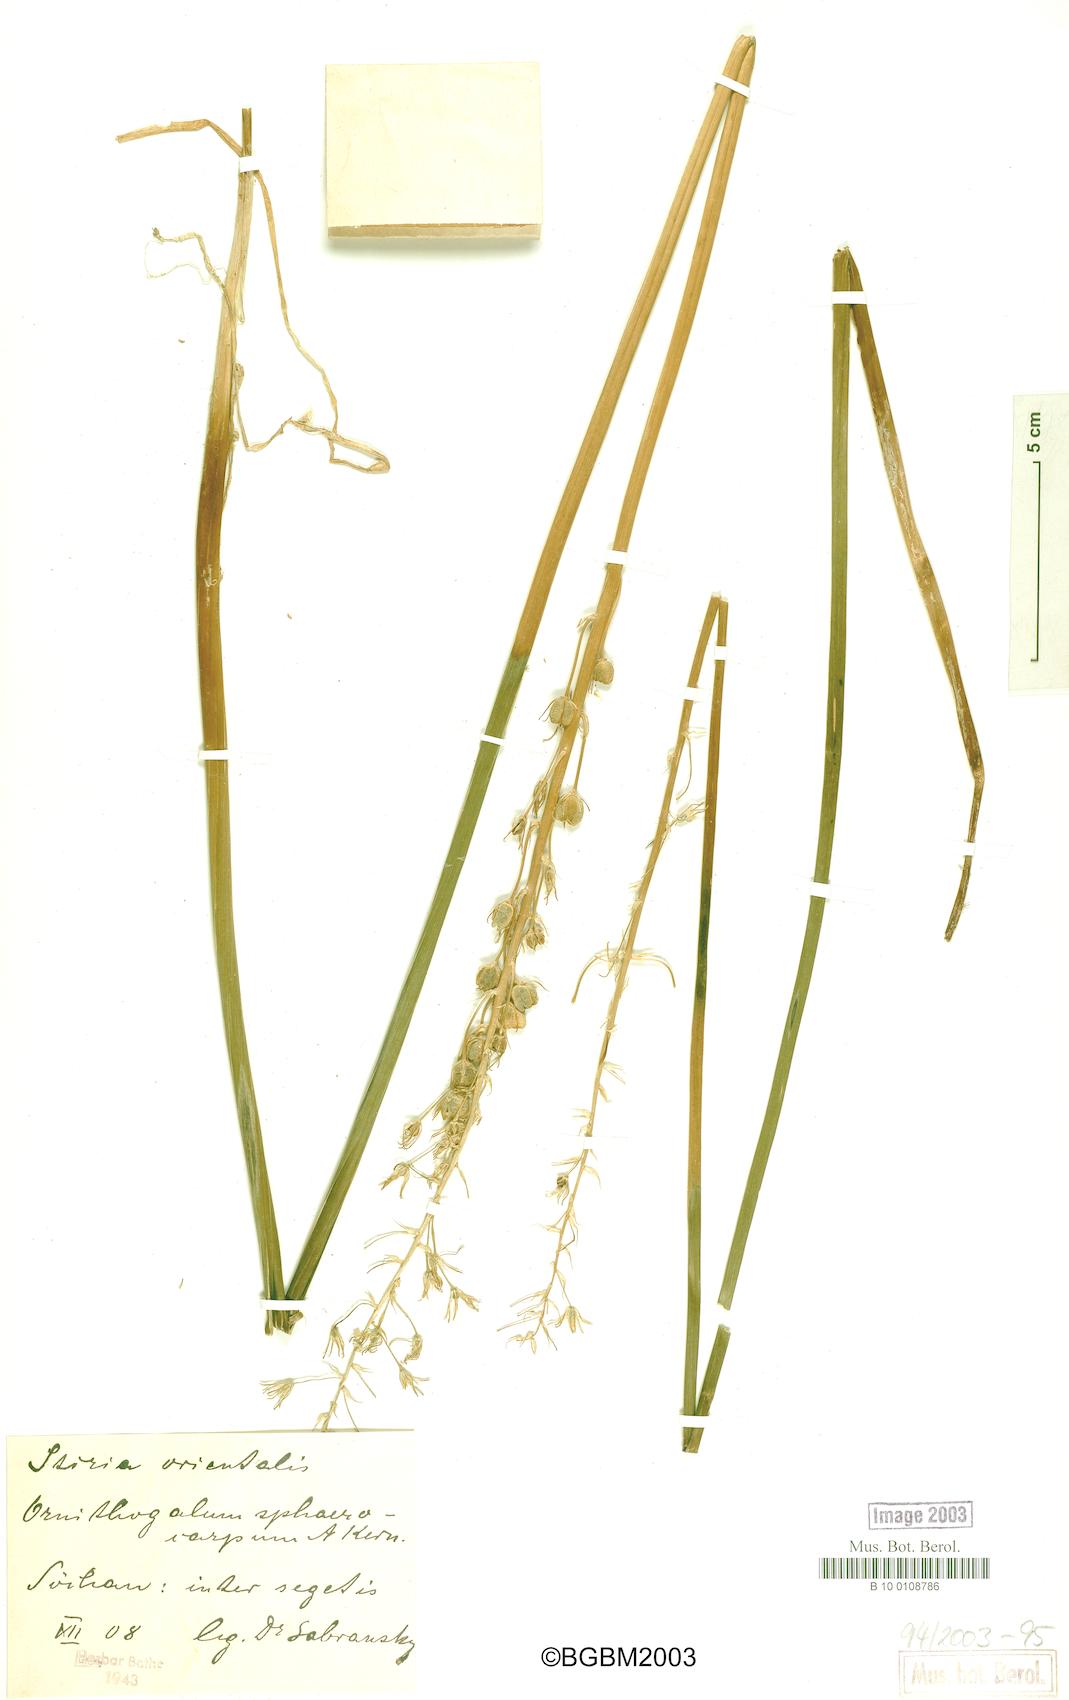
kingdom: Plantae
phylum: Tracheophyta
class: Liliopsida
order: Asparagales
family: Asparagaceae
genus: Ornithogalum
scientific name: Ornithogalum sphaerocarpum
